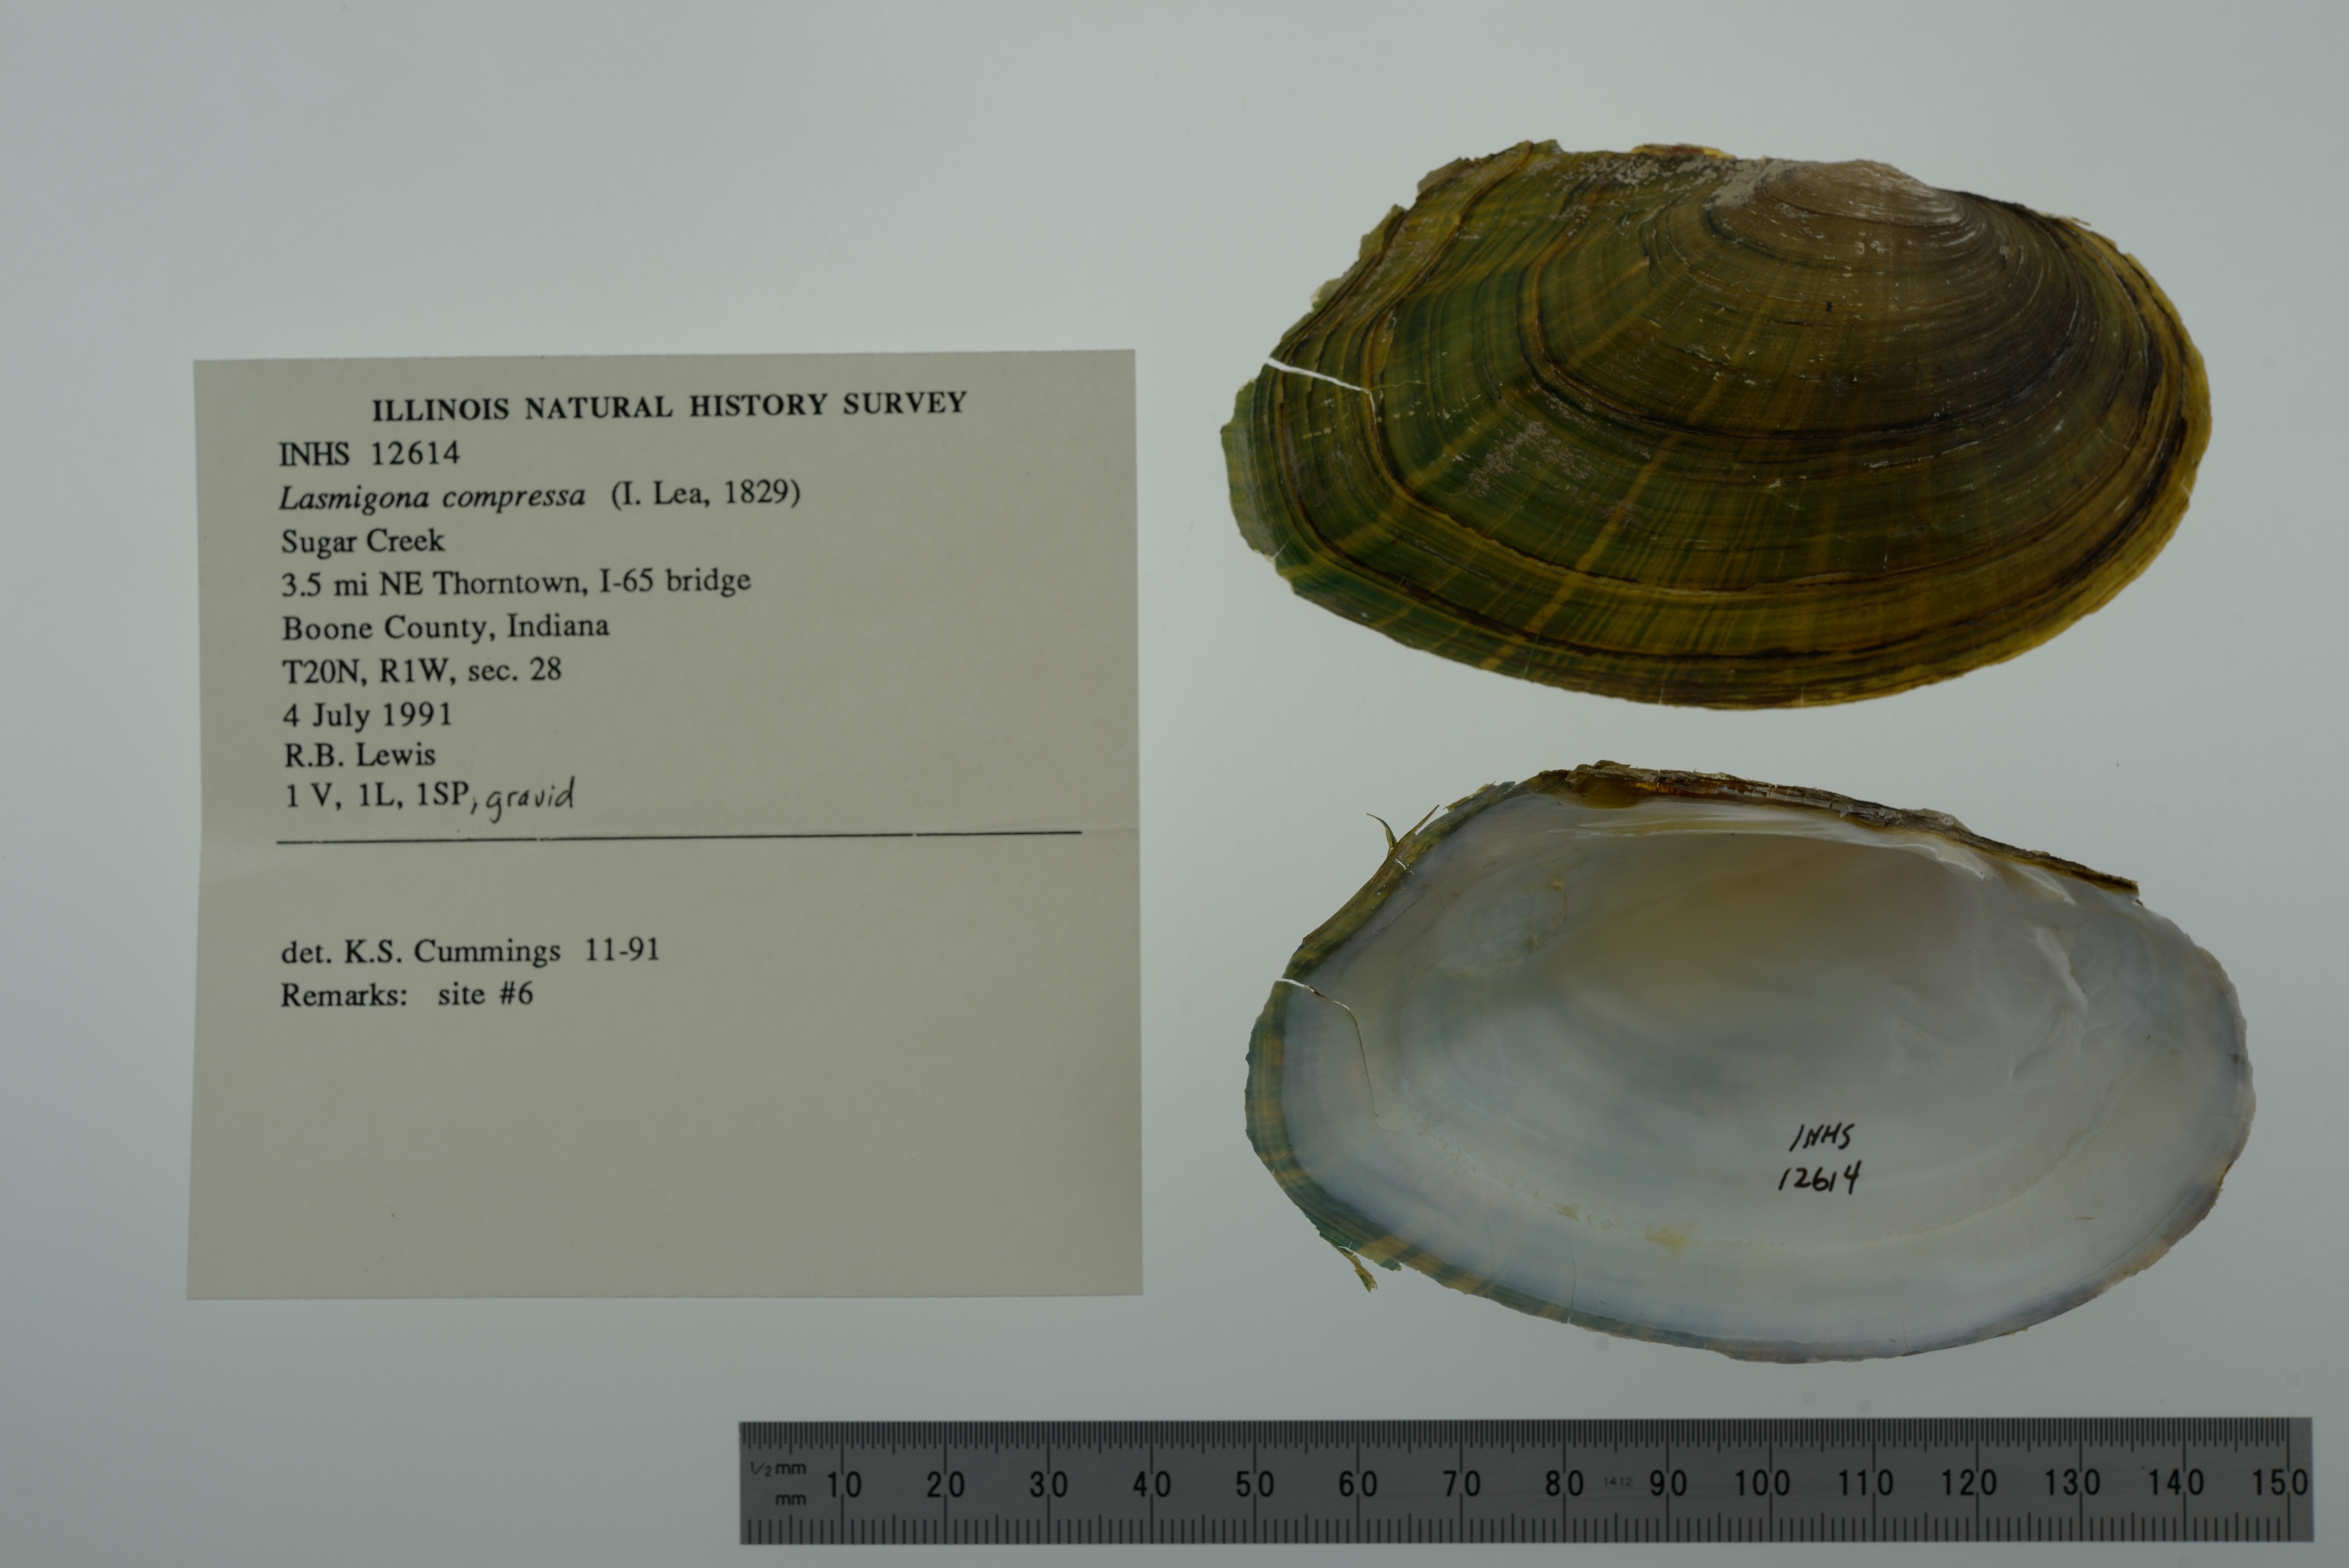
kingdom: Animalia
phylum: Mollusca
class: Bivalvia
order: Unionida
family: Unionidae
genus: Lasmigona
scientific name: Lasmigona compressa
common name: Creek heelsplitter
